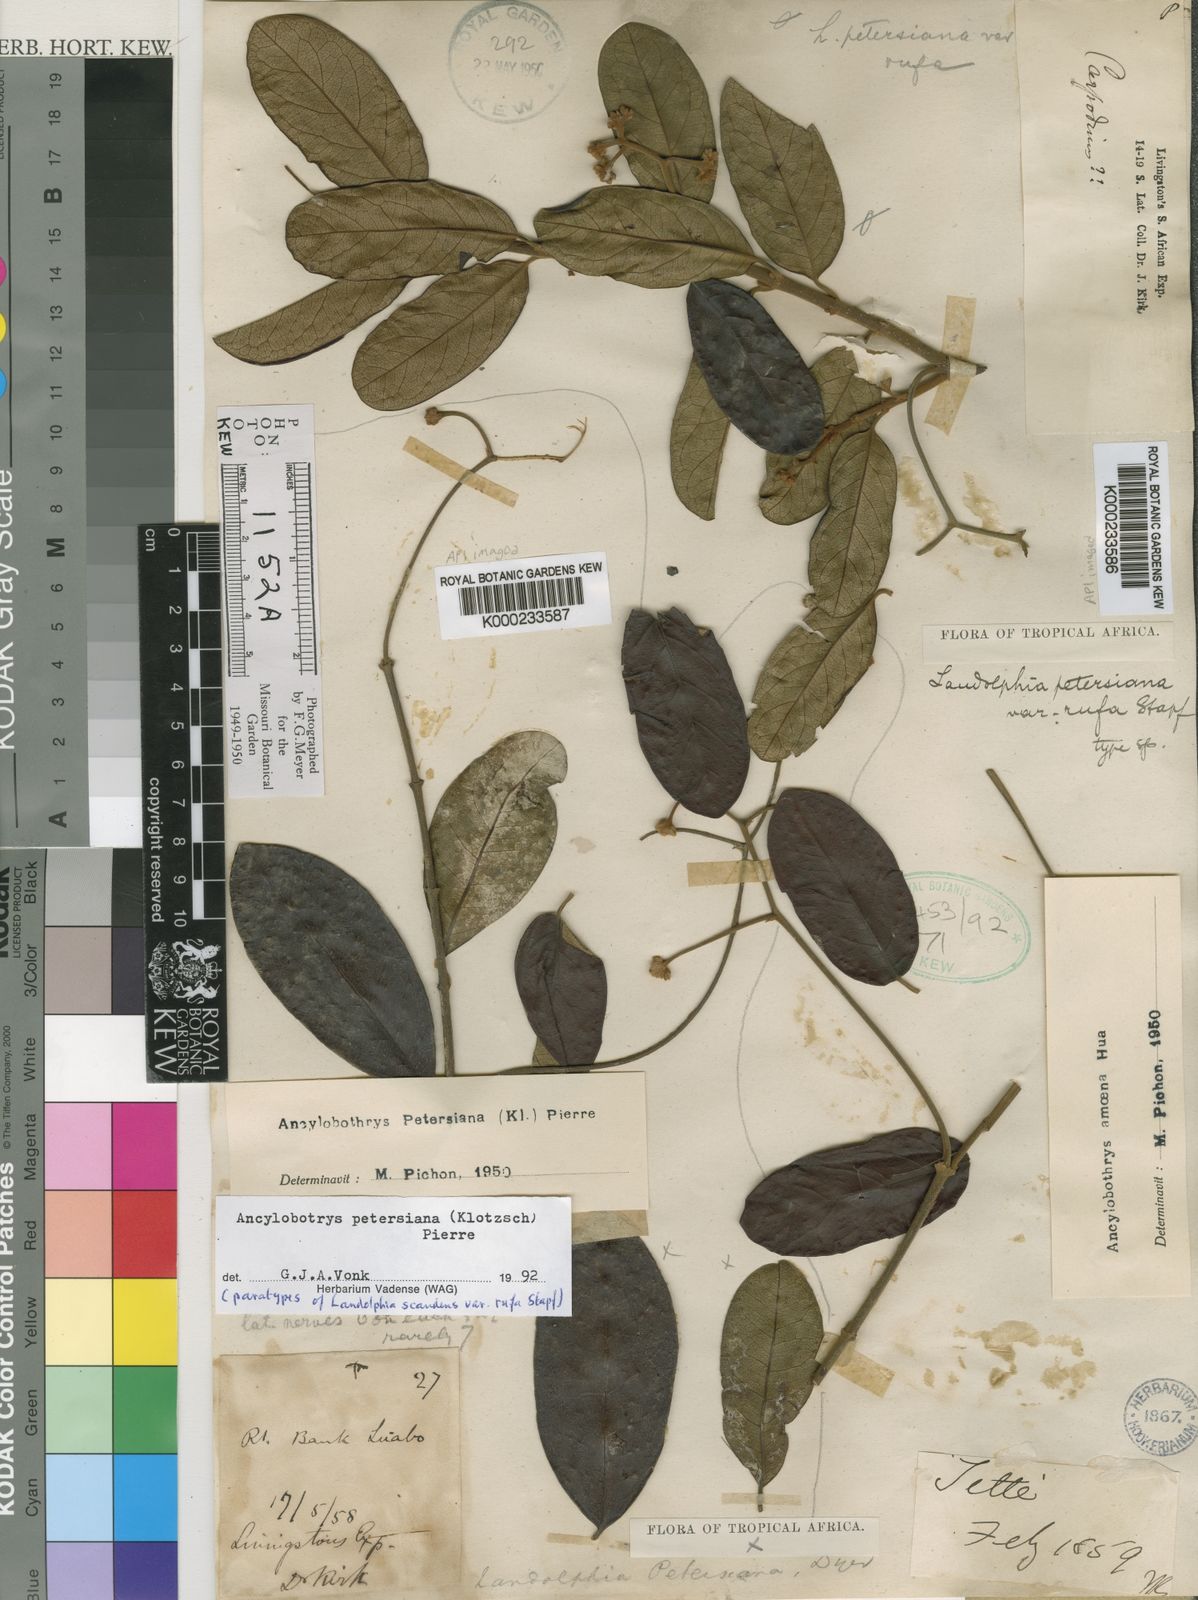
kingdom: Plantae
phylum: Tracheophyta
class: Magnoliopsida
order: Gentianales
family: Apocynaceae
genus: Ancylobothrys
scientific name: Ancylobothrys petersiana
